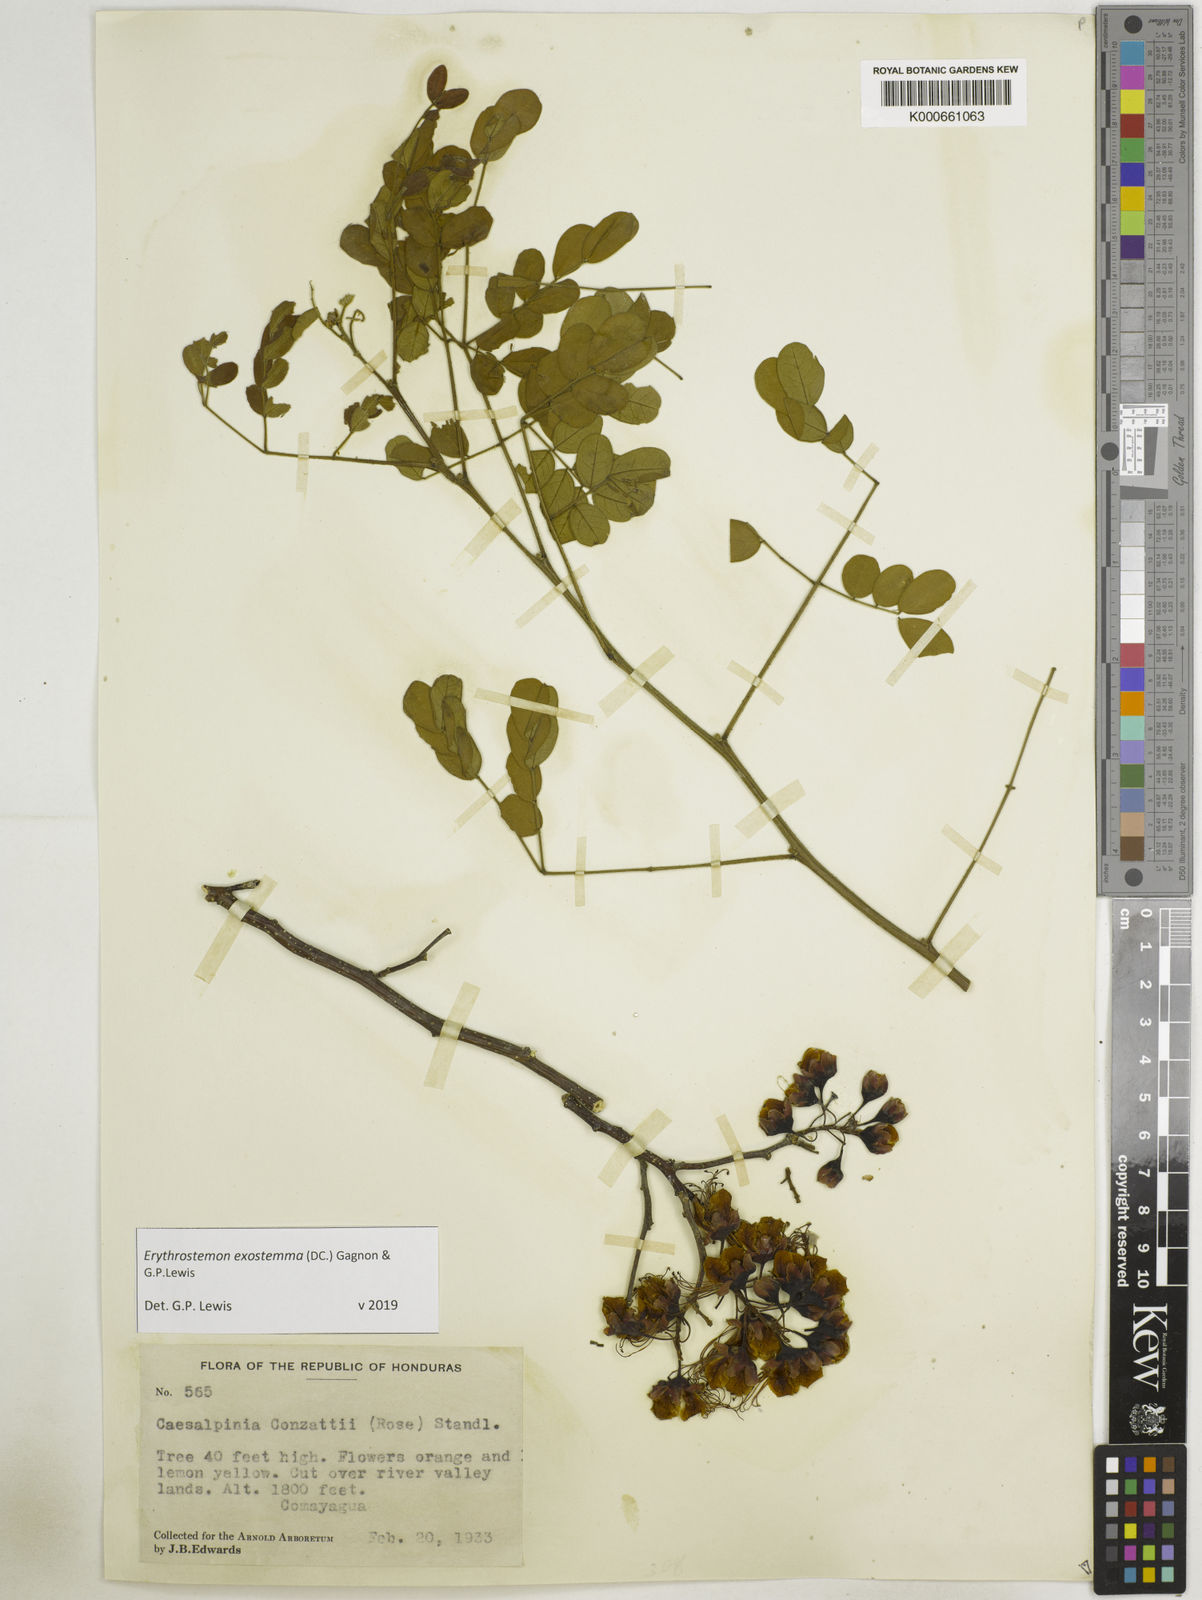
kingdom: Plantae
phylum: Tracheophyta
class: Magnoliopsida
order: Fabales
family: Fabaceae
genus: Erythrostemon
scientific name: Erythrostemon exostemma
